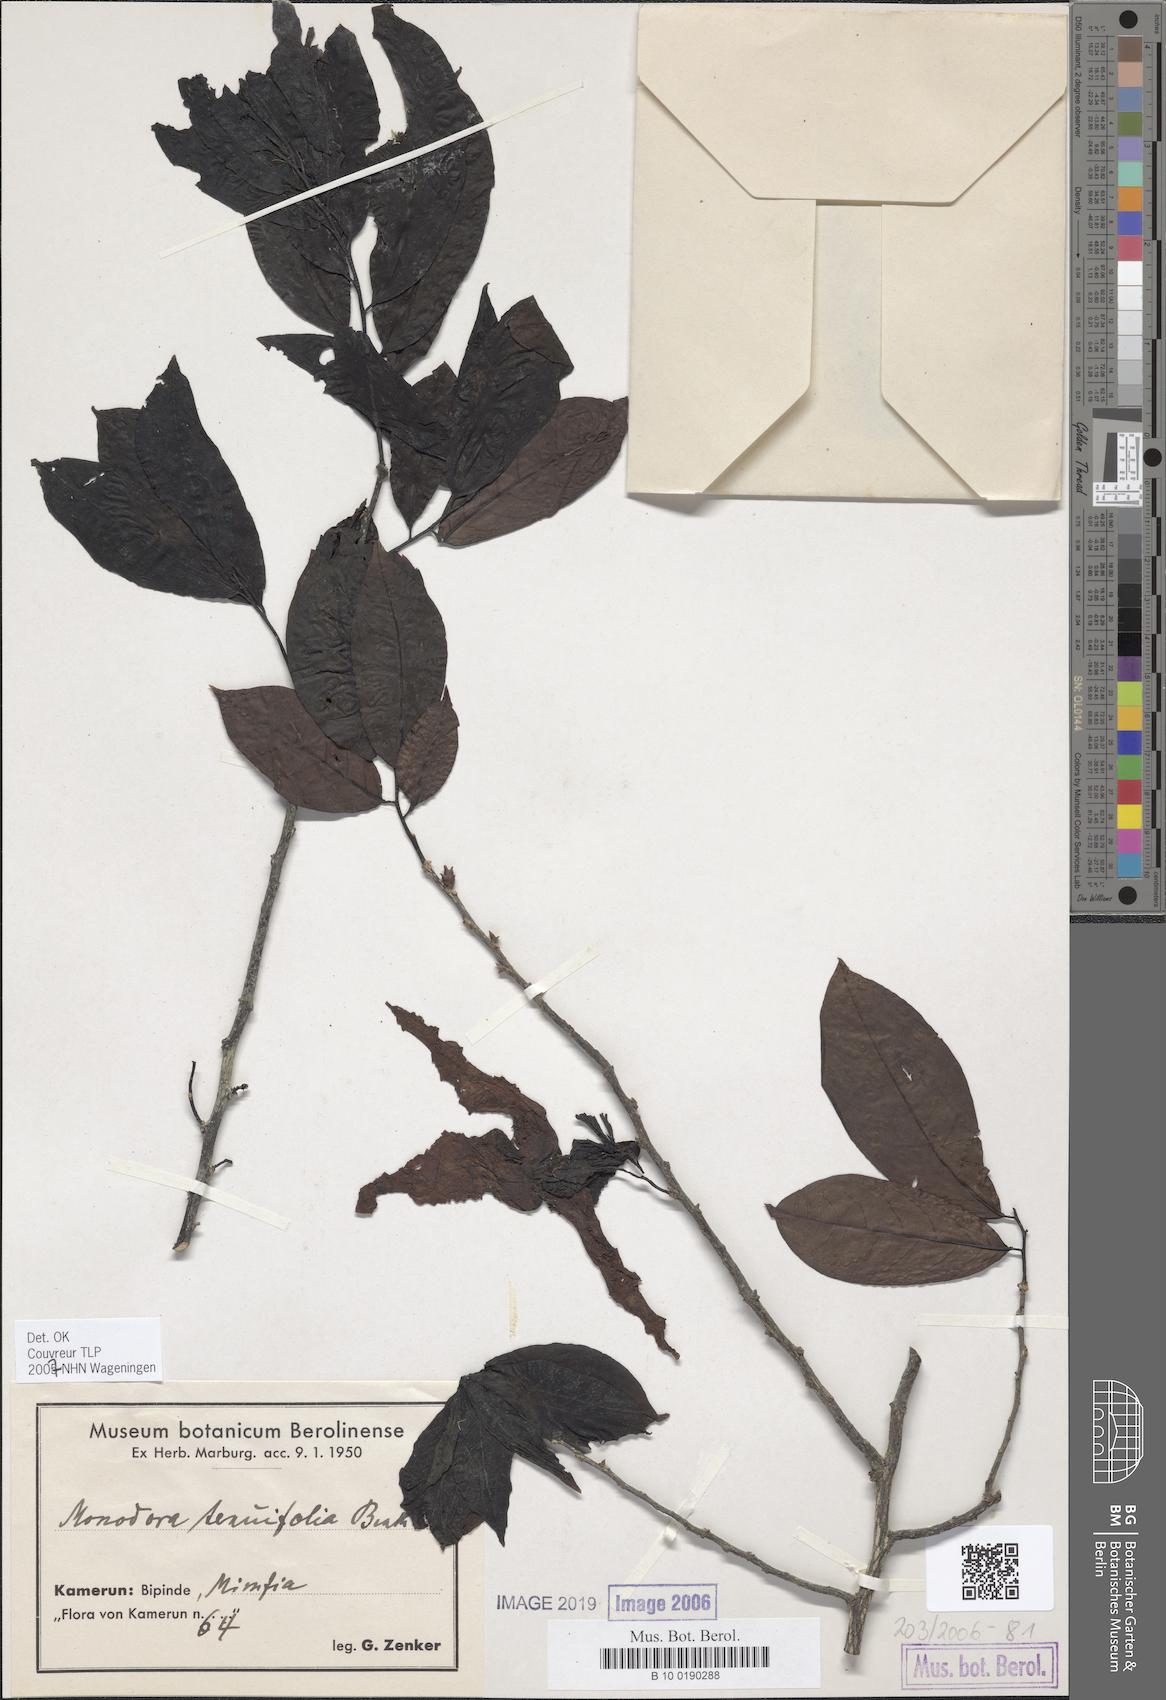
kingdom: Plantae
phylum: Tracheophyta
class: Magnoliopsida
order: Magnoliales
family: Annonaceae
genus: Monodora
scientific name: Monodora tenuifolia
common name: Orchidtree
